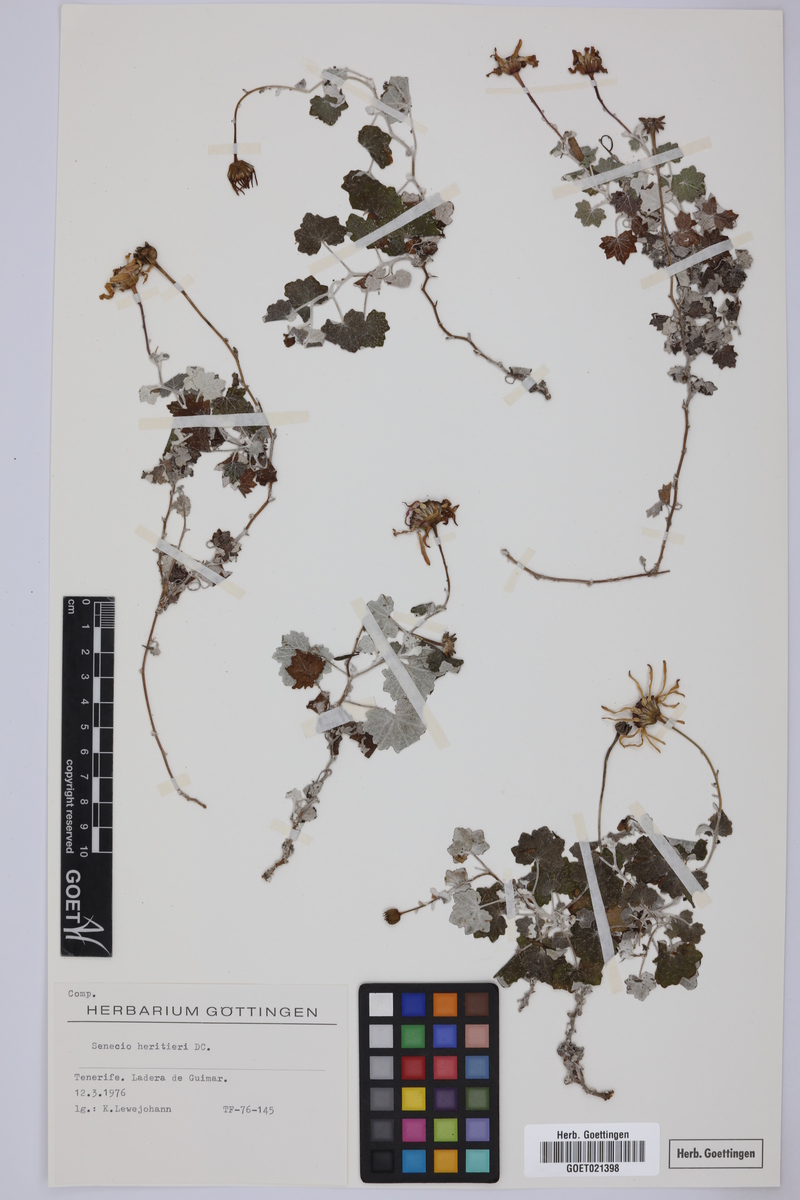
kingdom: Plantae
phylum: Tracheophyta
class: Magnoliopsida
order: Asterales
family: Asteraceae
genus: Pericallis
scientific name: Pericallis lanata
